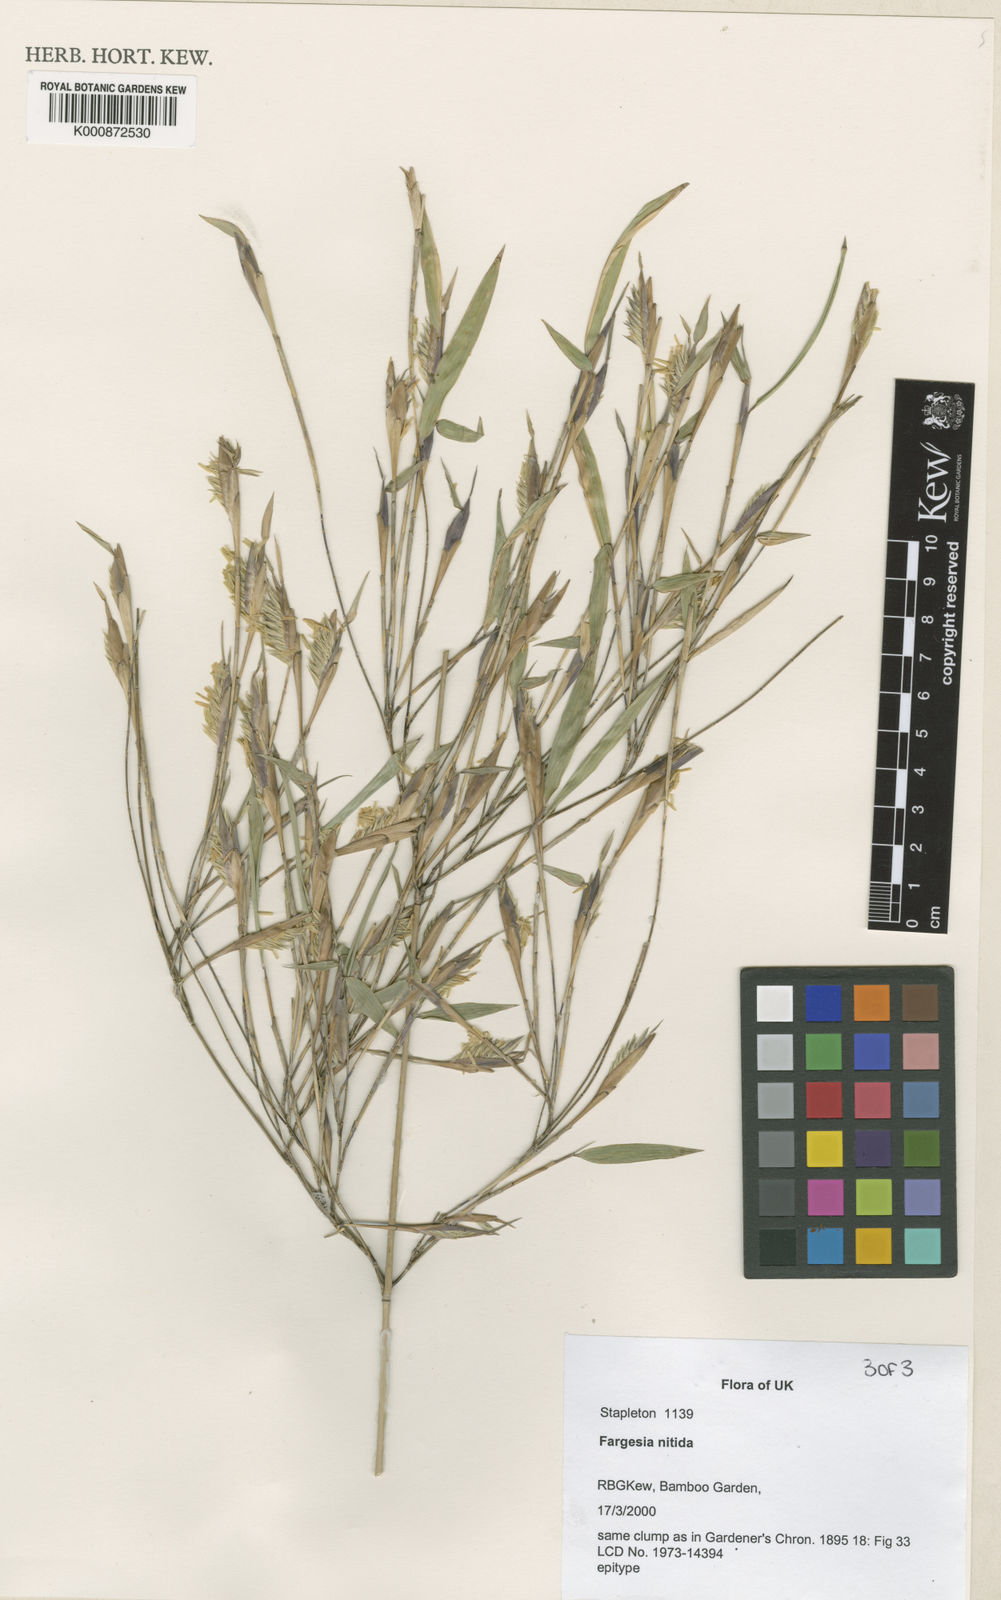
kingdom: Plantae
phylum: Tracheophyta
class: Liliopsida
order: Poales
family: Poaceae
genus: Fargesia
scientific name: Fargesia nitida ex
